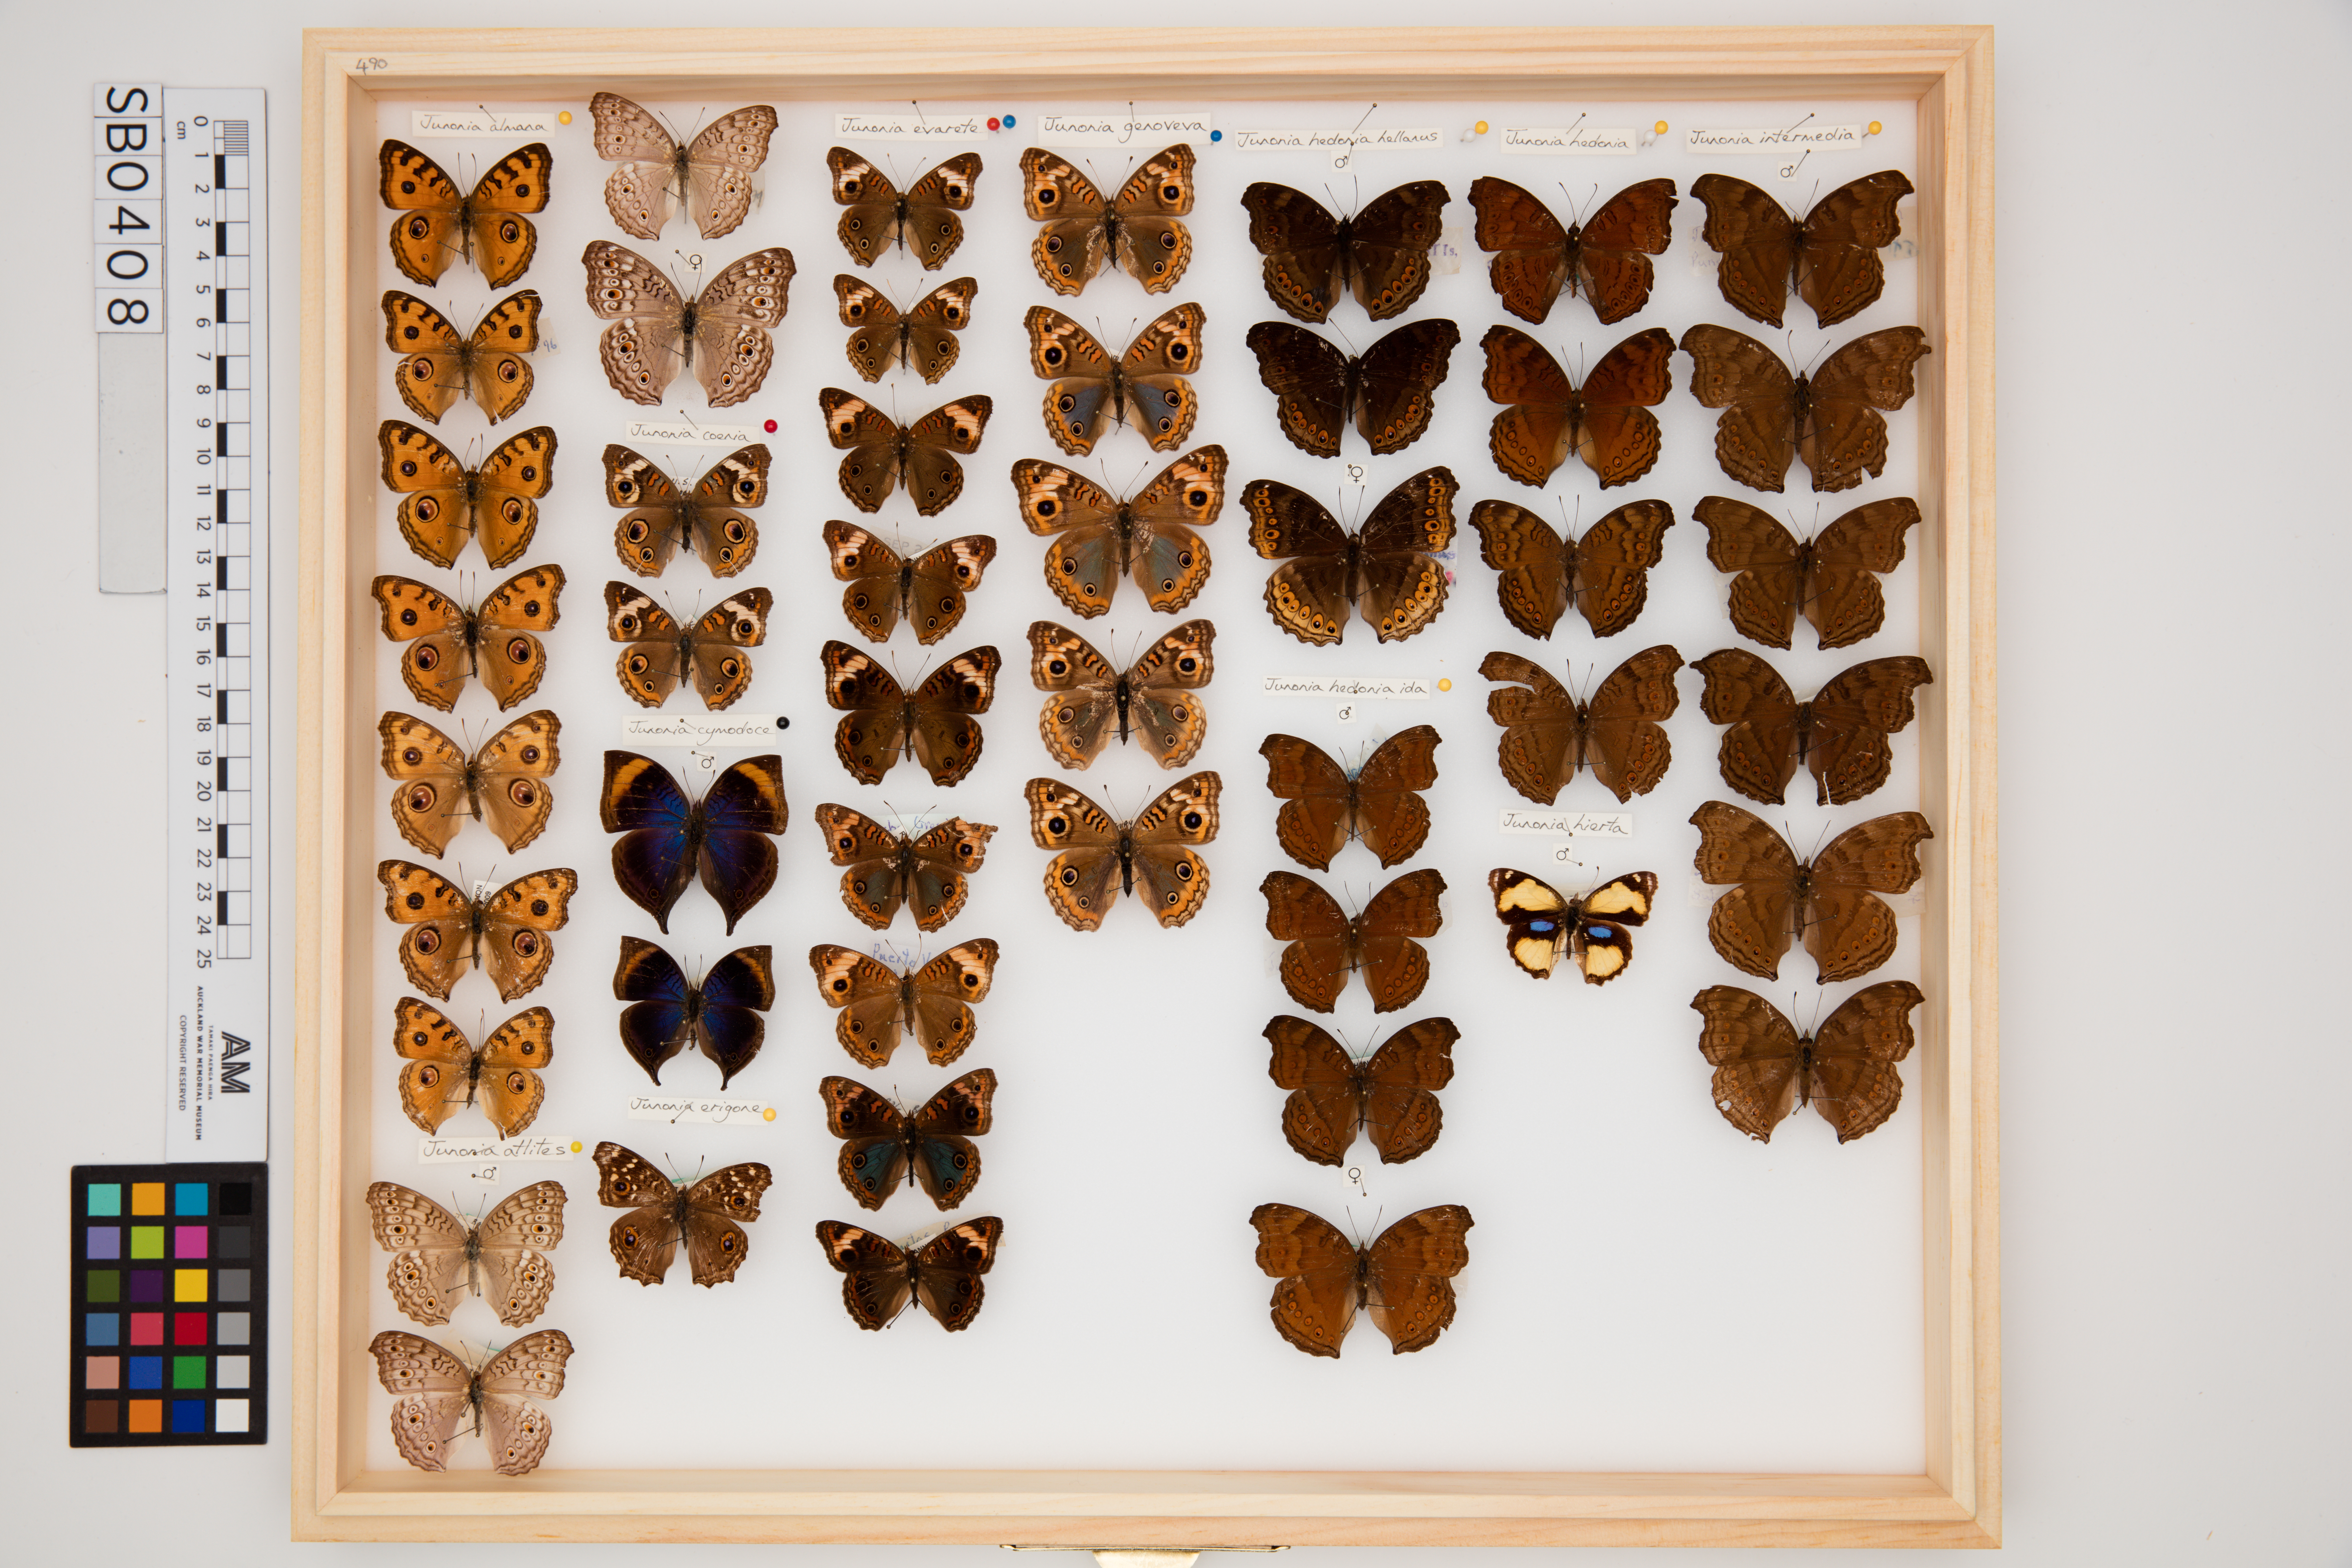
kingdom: Animalia
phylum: Arthropoda
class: Insecta
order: Lepidoptera
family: Nymphalidae
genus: Junonia
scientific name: Junonia lavinia
